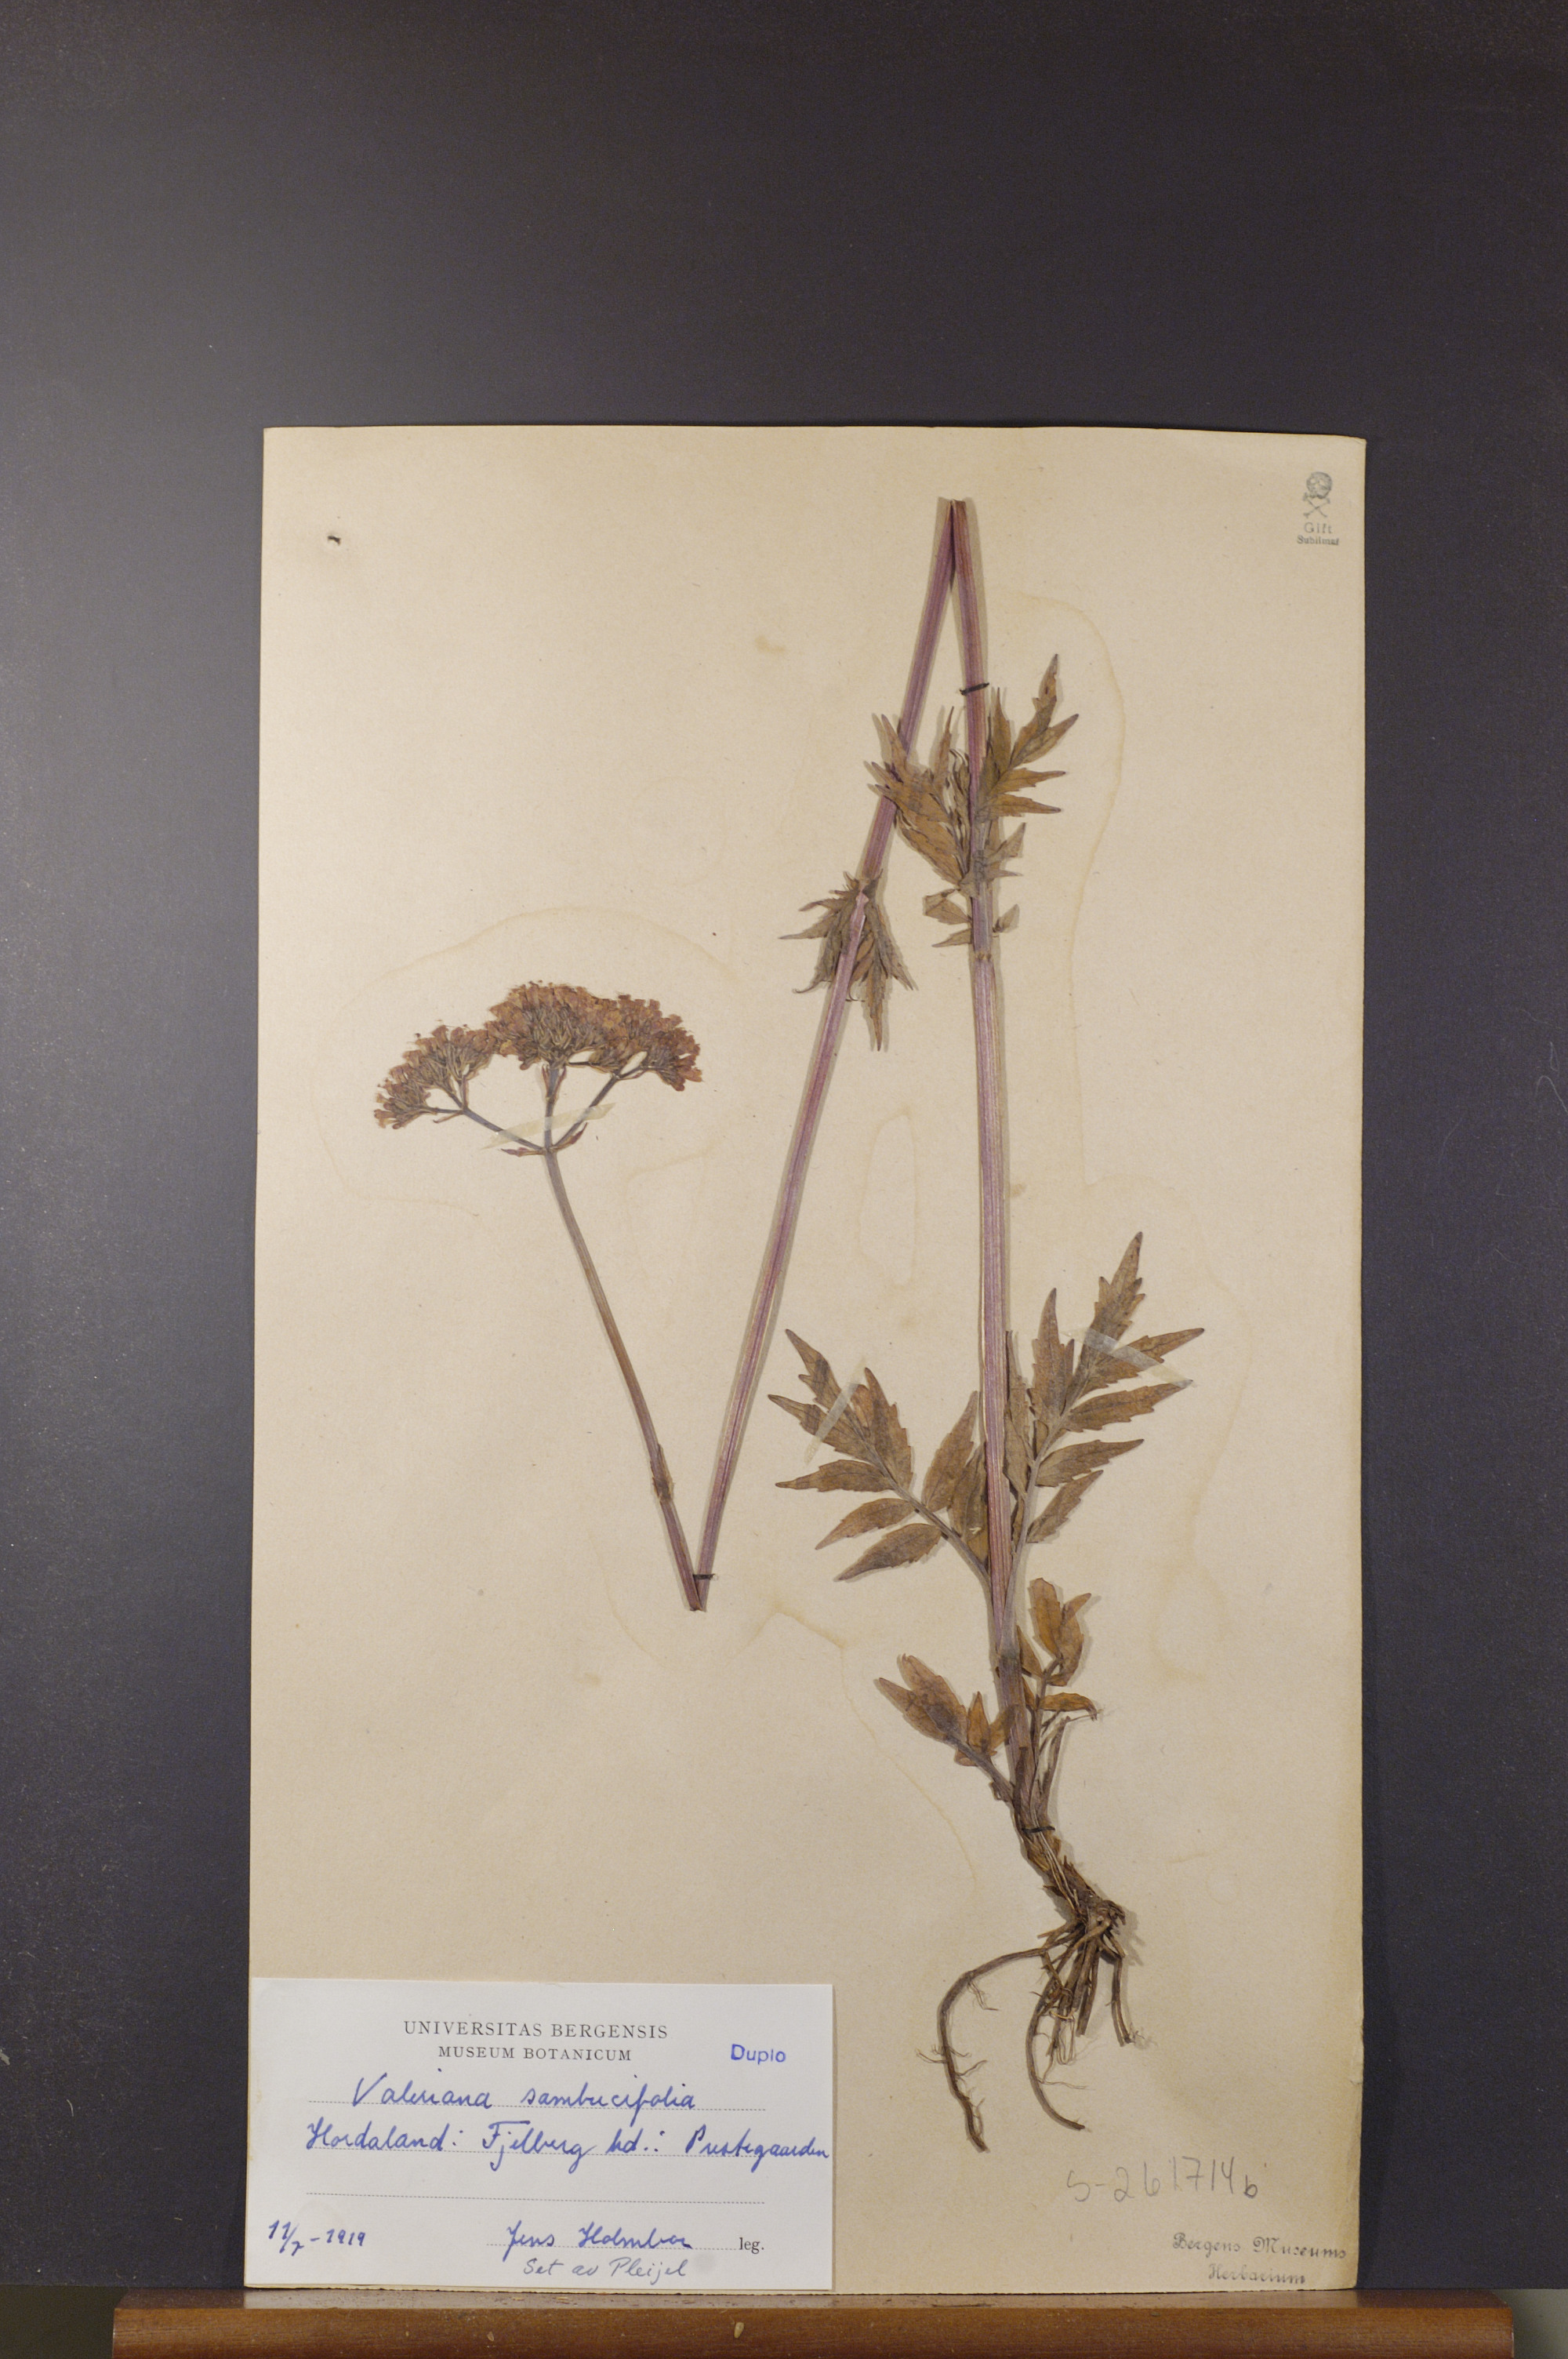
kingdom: Plantae
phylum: Tracheophyta
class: Magnoliopsida
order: Dipsacales
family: Caprifoliaceae
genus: Valeriana
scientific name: Valeriana excelsa
